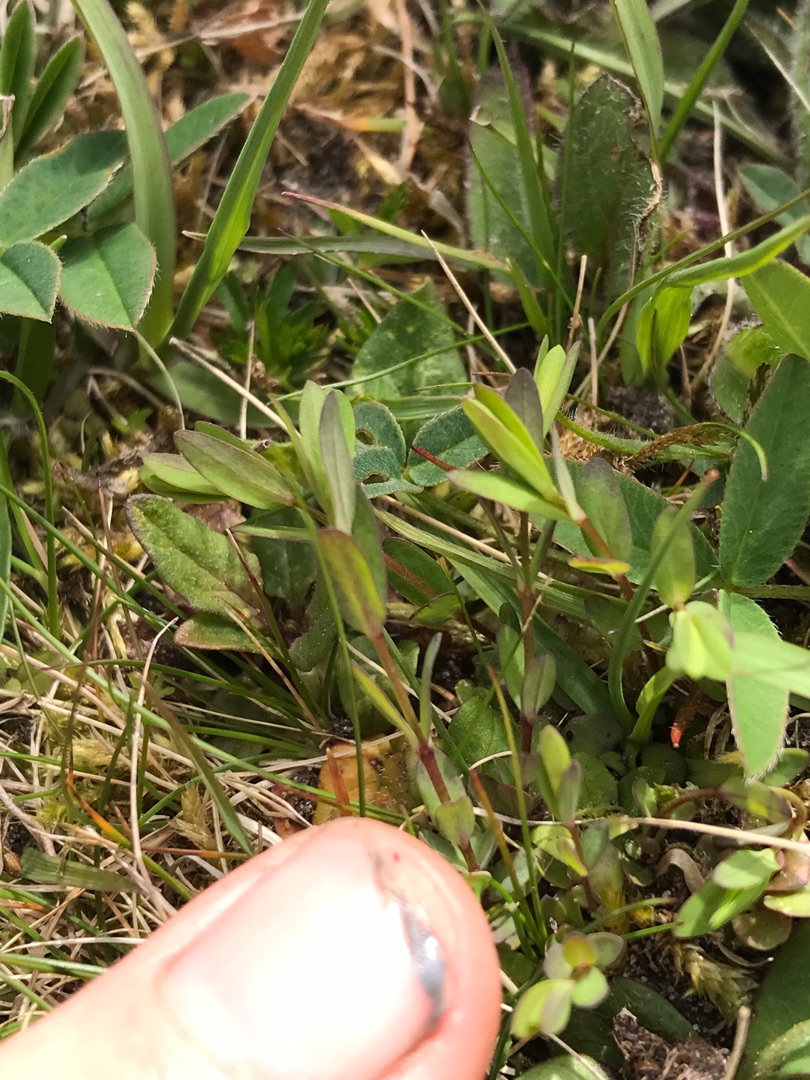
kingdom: Plantae
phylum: Tracheophyta
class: Magnoliopsida
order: Malpighiales
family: Linaceae
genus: Linum
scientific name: Linum catharticum
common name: Vild hør
